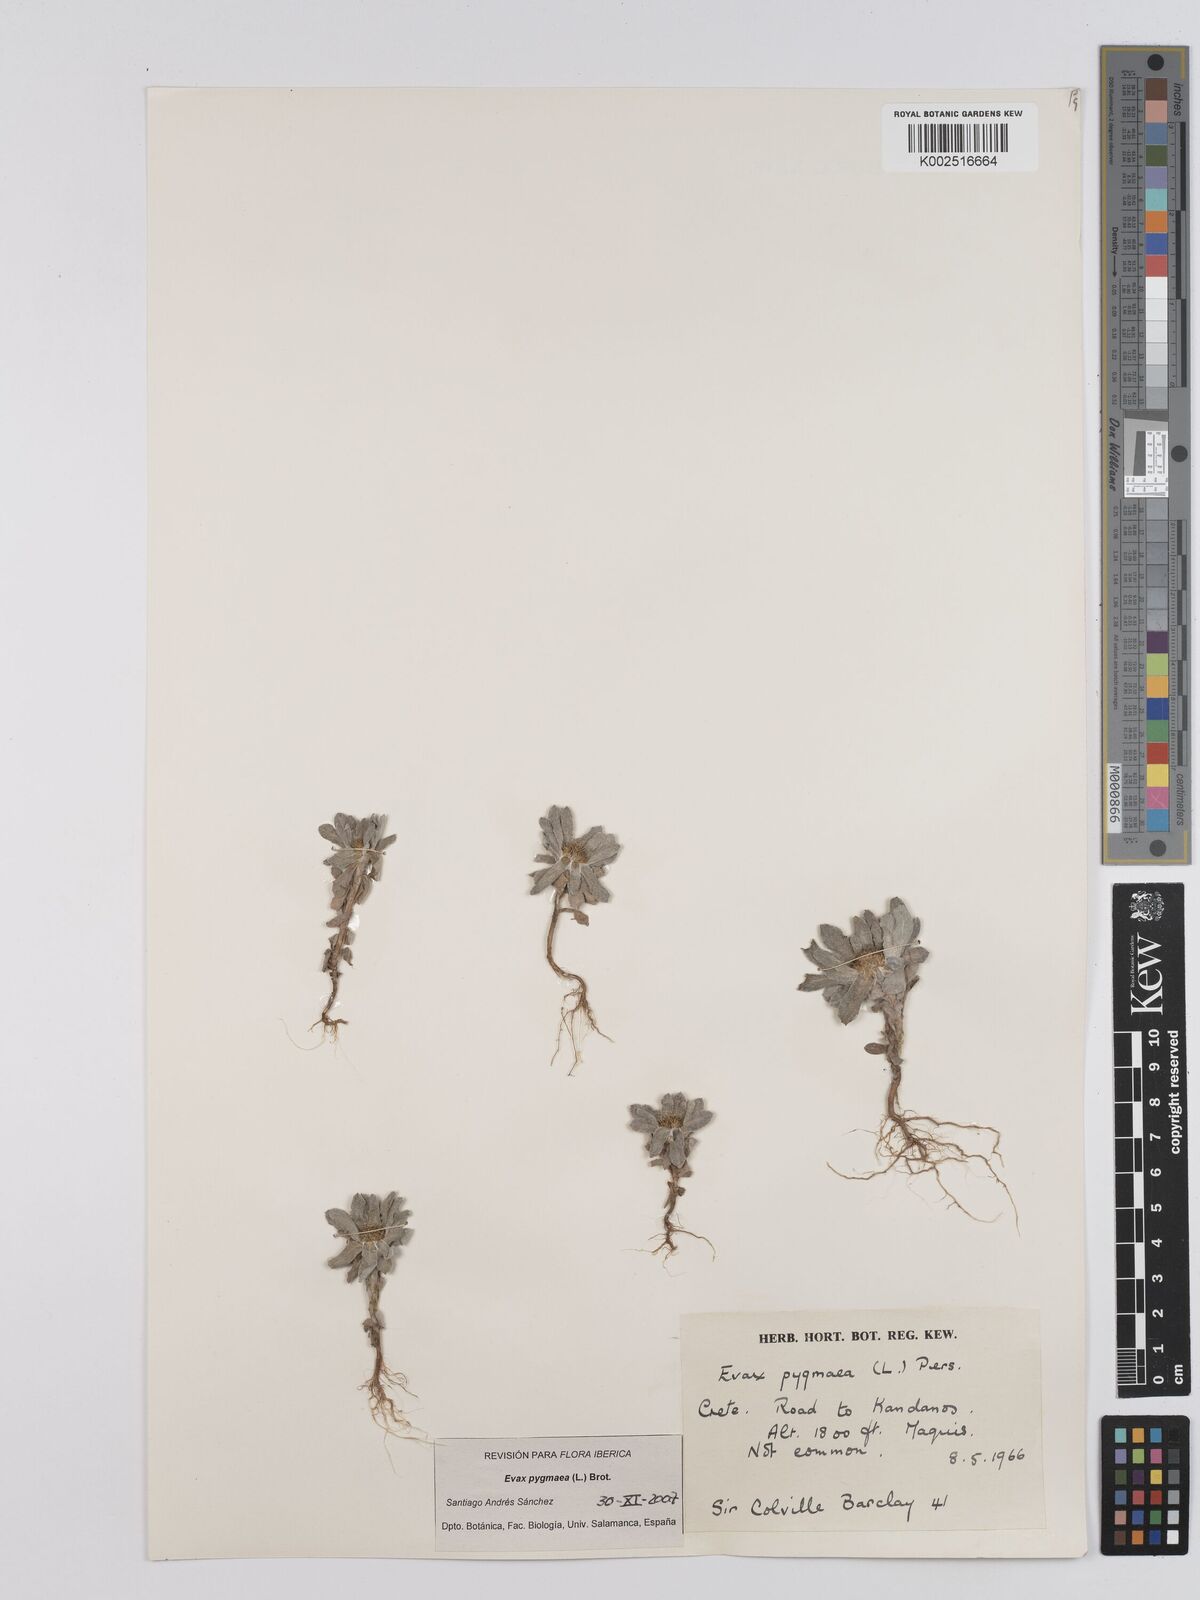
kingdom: Plantae
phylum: Tracheophyta
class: Magnoliopsida
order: Asterales
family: Asteraceae
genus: Filago
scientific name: Filago pygmaea
